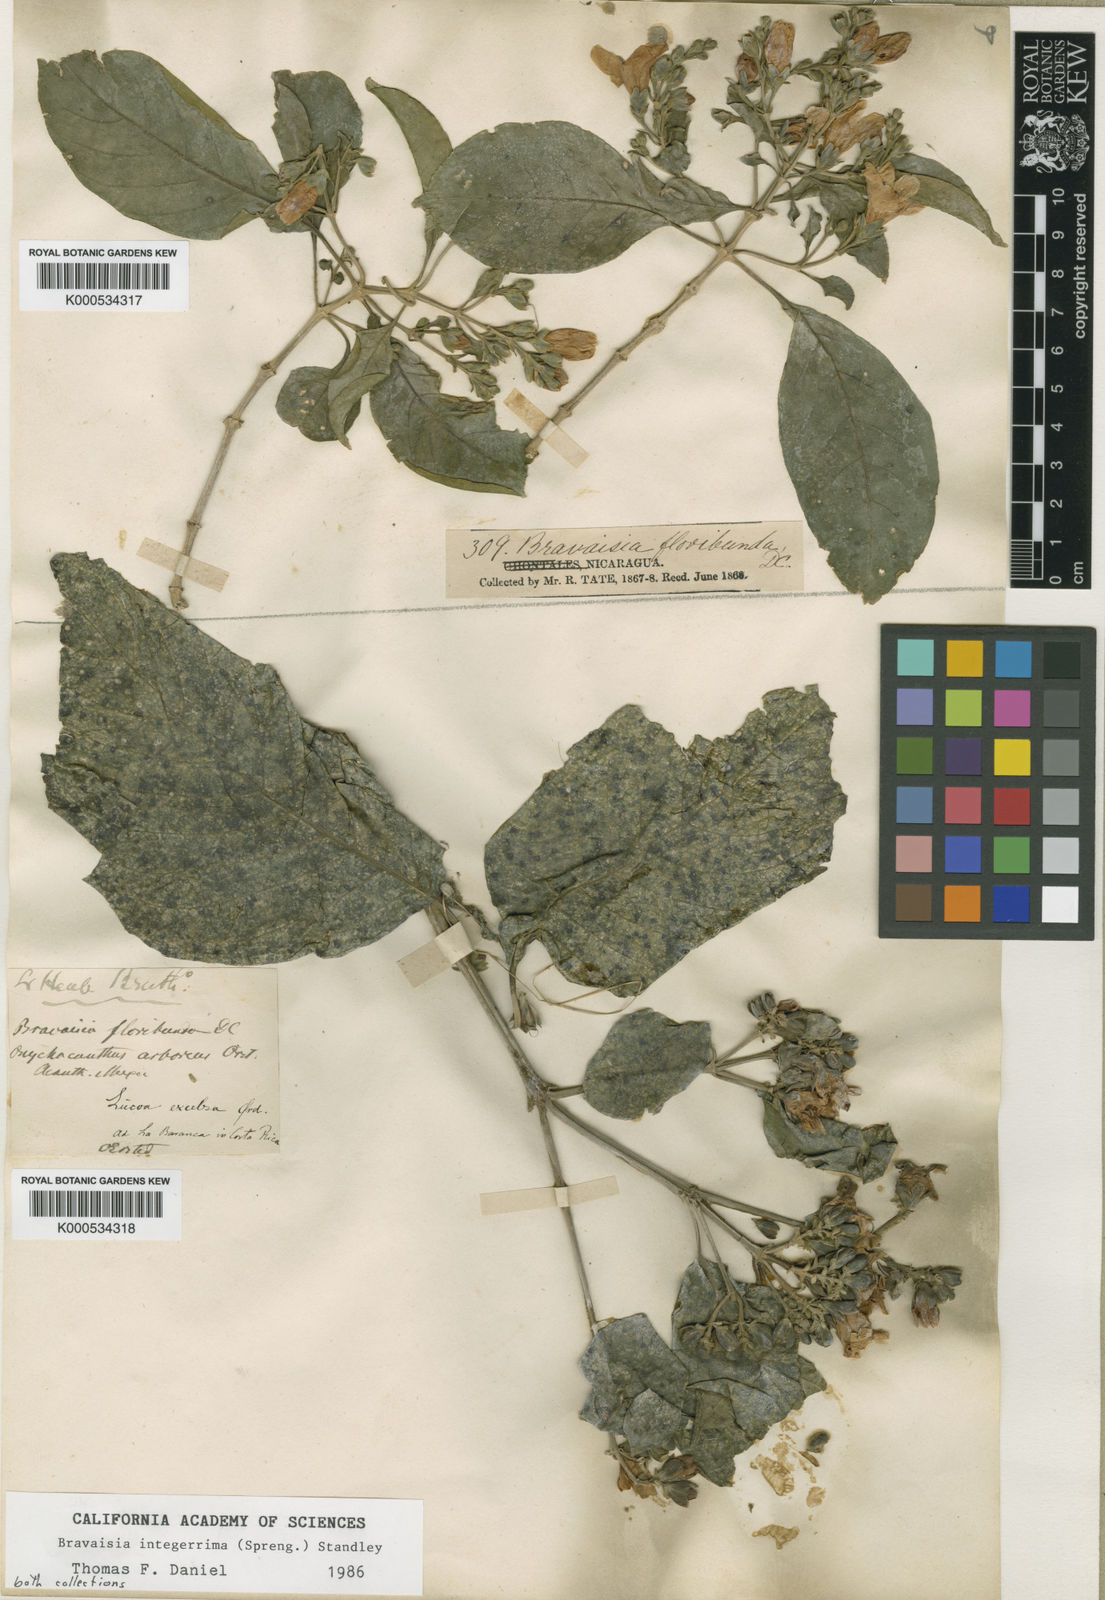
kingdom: Plantae
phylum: Tracheophyta
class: Magnoliopsida
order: Lamiales
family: Acanthaceae
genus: Bravaisia
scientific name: Bravaisia integerrima
